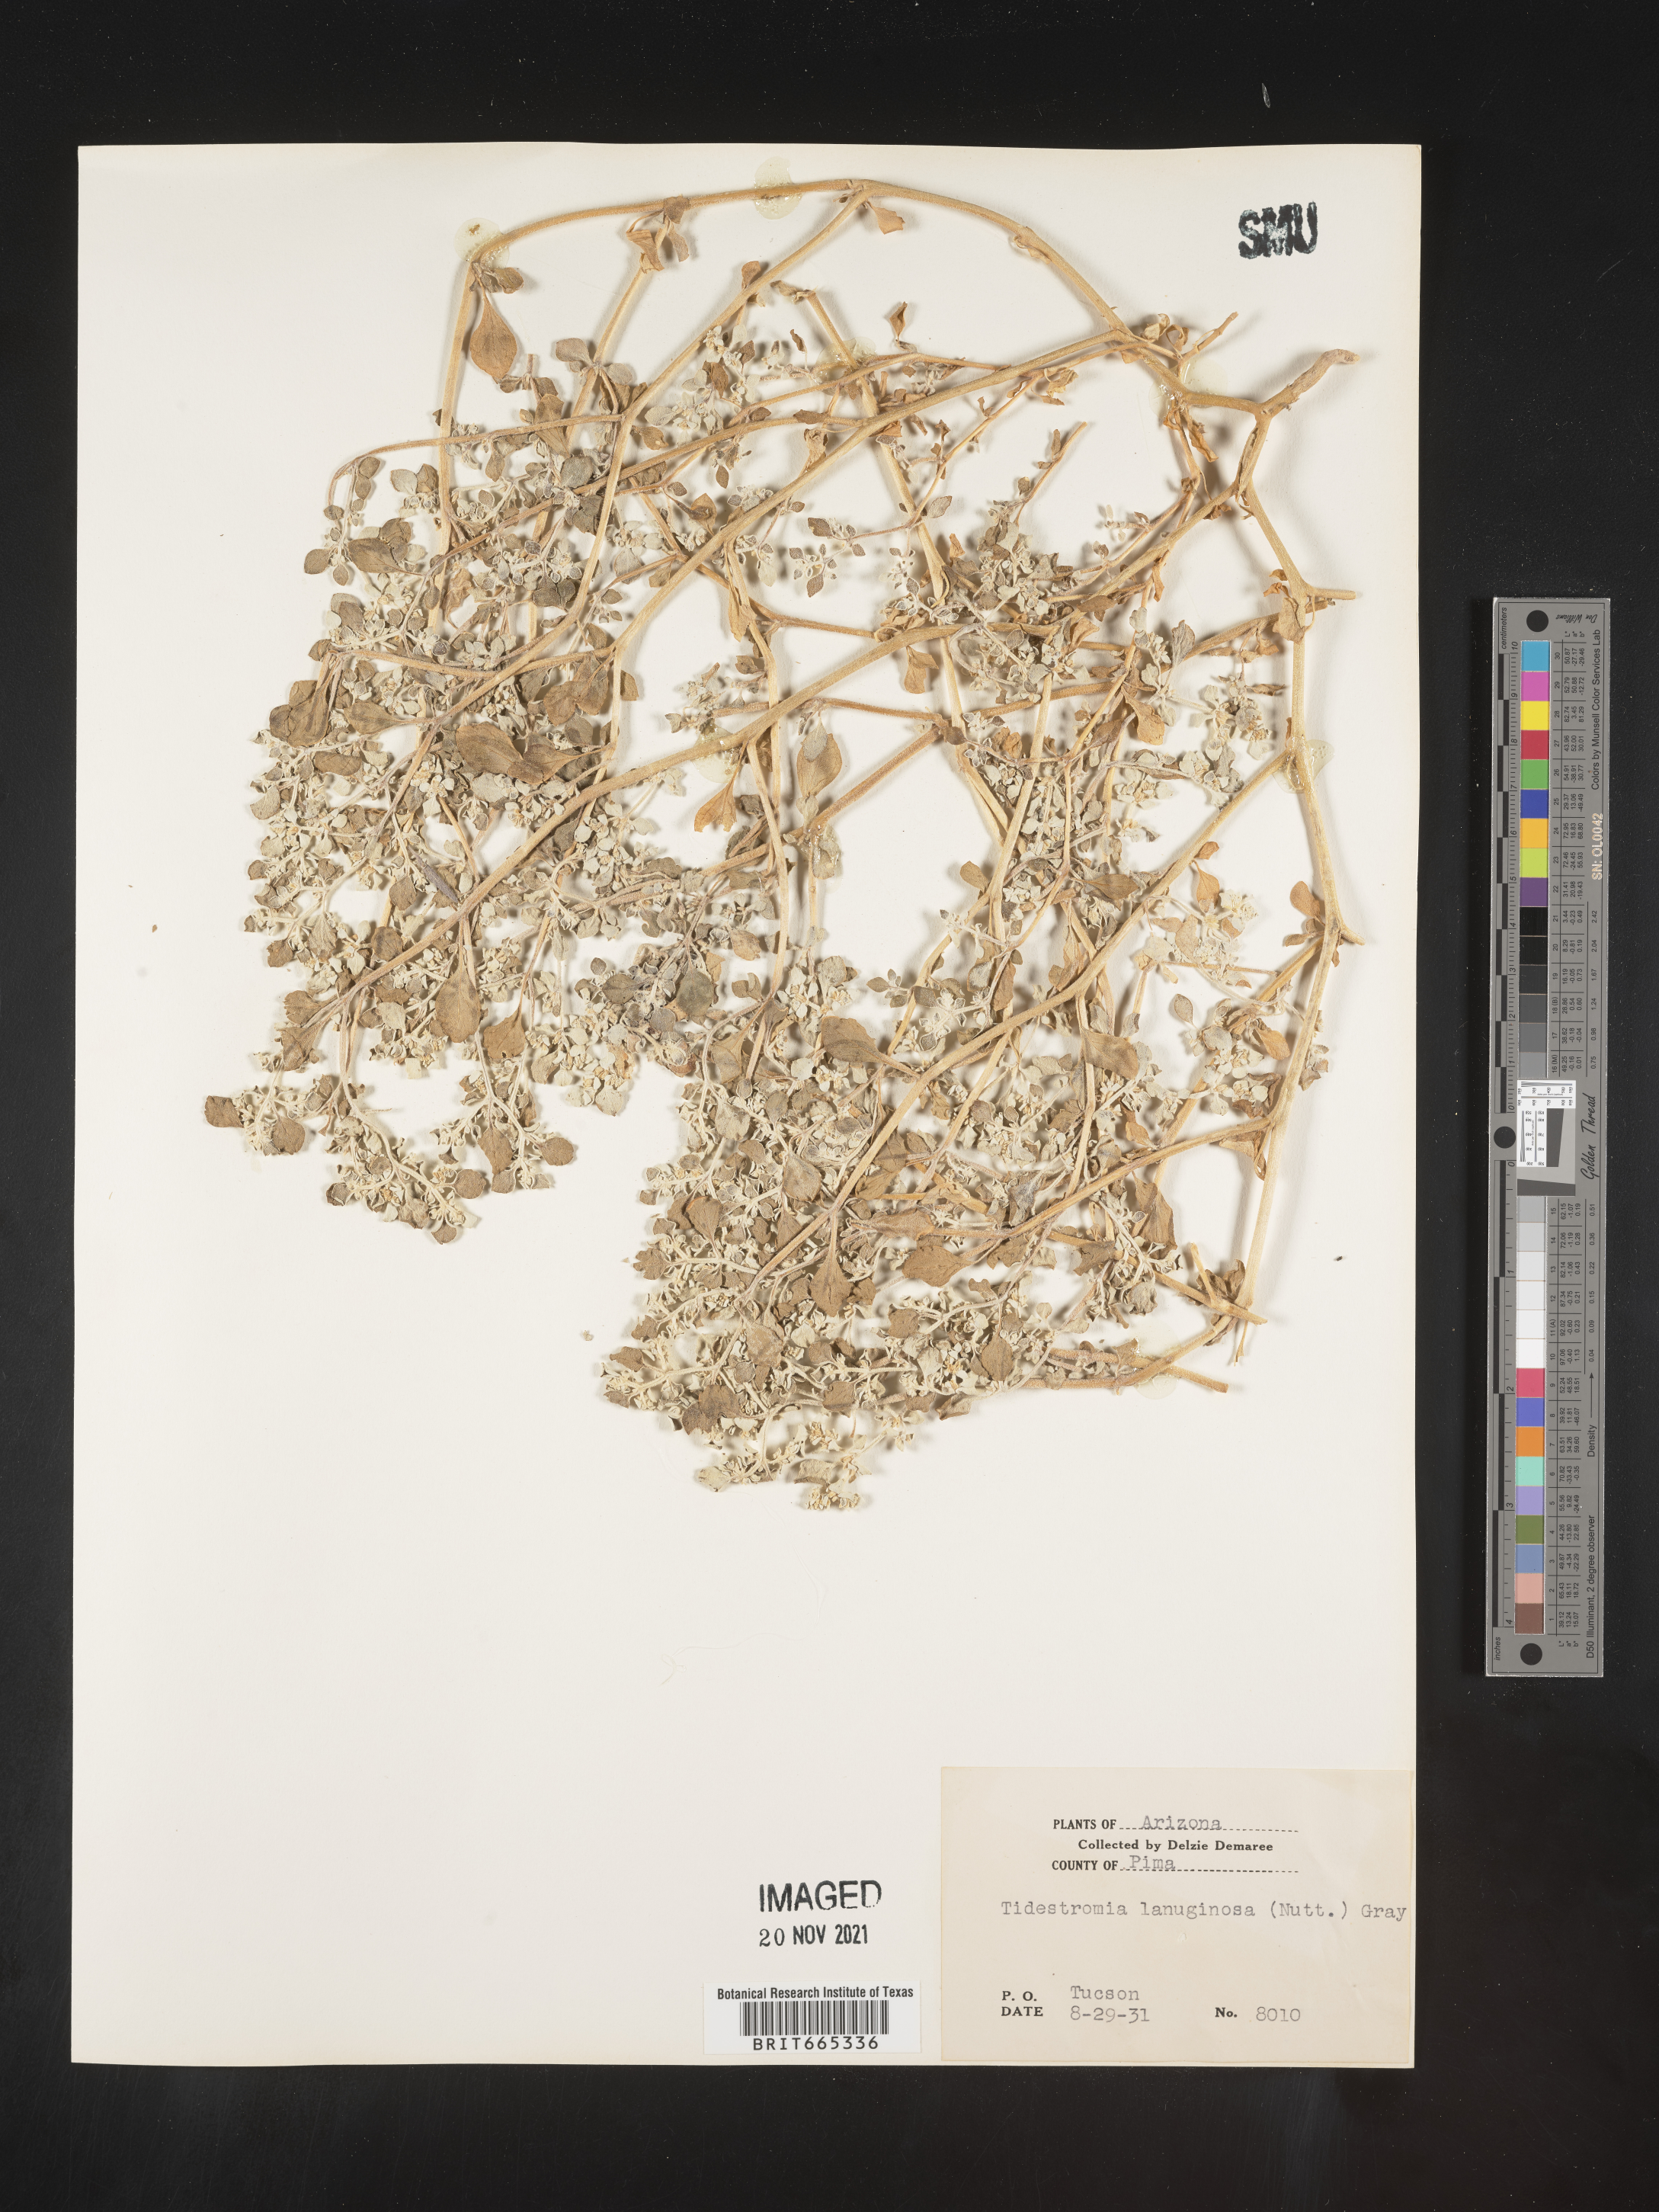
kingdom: Plantae
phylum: Tracheophyta
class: Magnoliopsida
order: Caryophyllales
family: Amaranthaceae
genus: Tidestromia
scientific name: Tidestromia lanuginosa
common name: Woolly tidestromia
